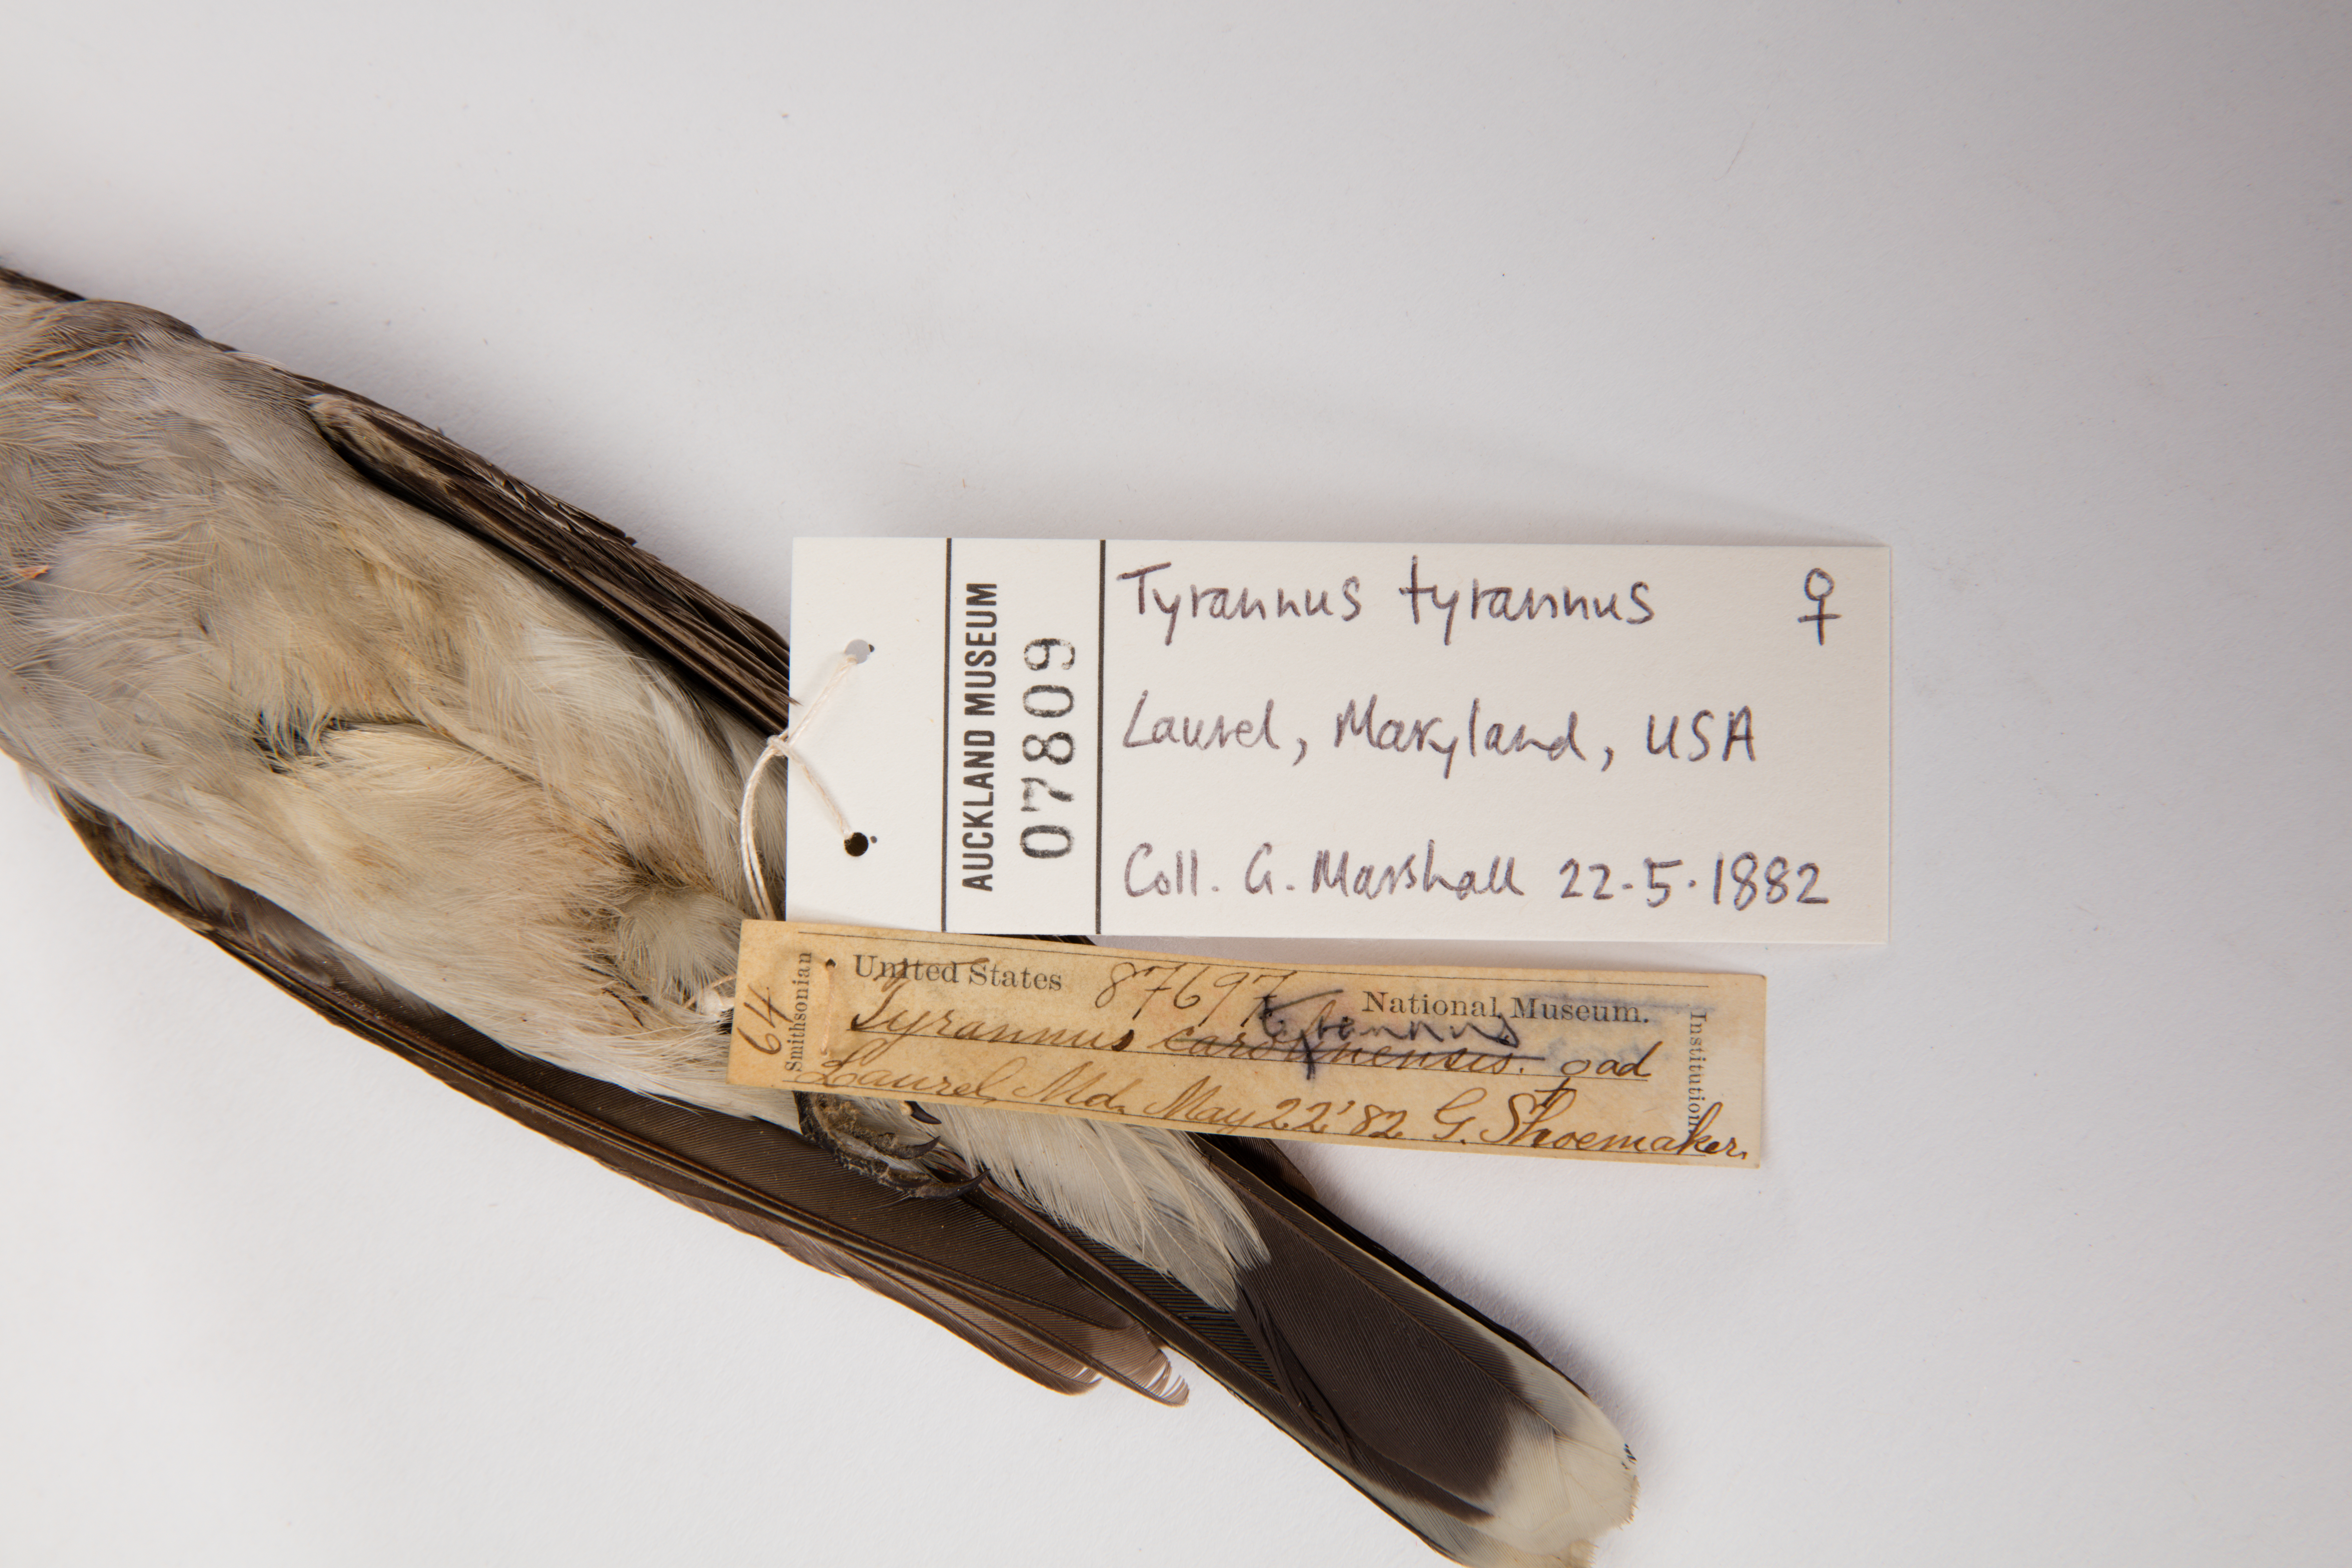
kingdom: Animalia
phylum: Chordata
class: Aves
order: Passeriformes
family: Tyrannidae
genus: Tyrannus
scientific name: Tyrannus tyrannus
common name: Eastern kingbird
